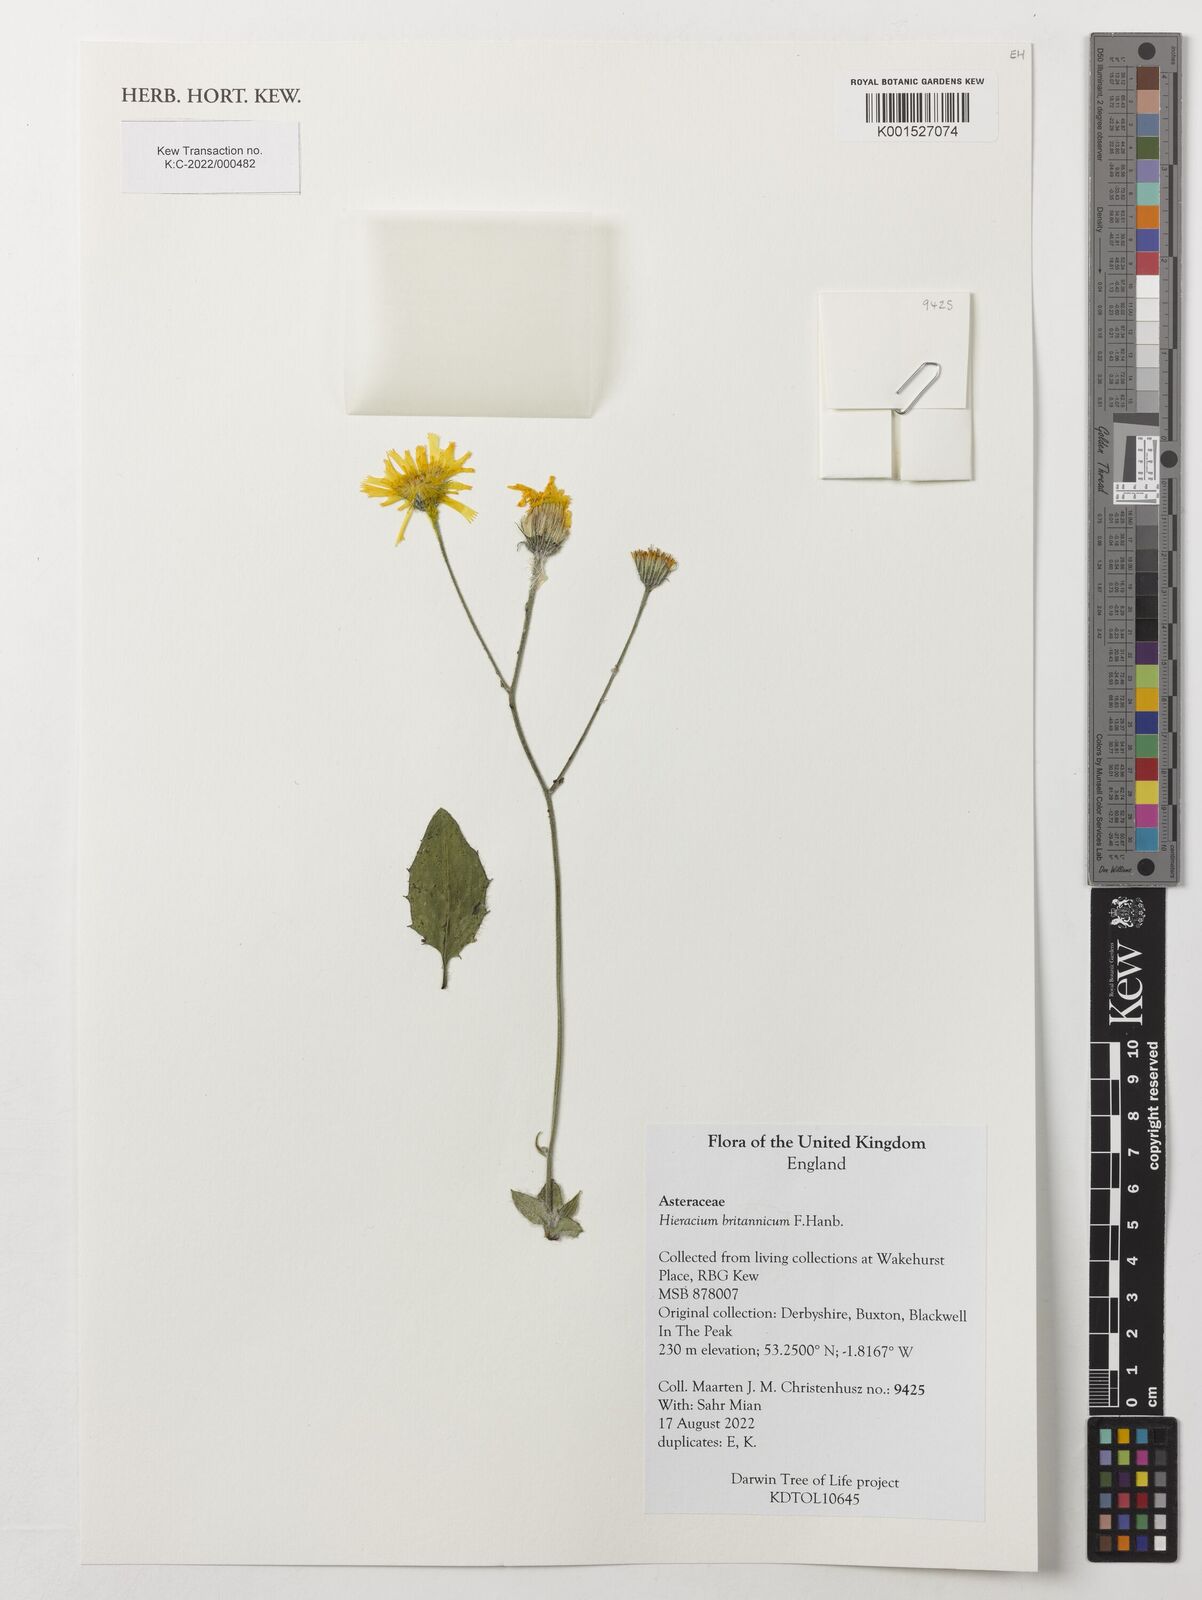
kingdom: Plantae
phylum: Tracheophyta
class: Magnoliopsida
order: Asterales
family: Asteraceae
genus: Hieracium
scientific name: Hieracium britannicum
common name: British hawkweed
